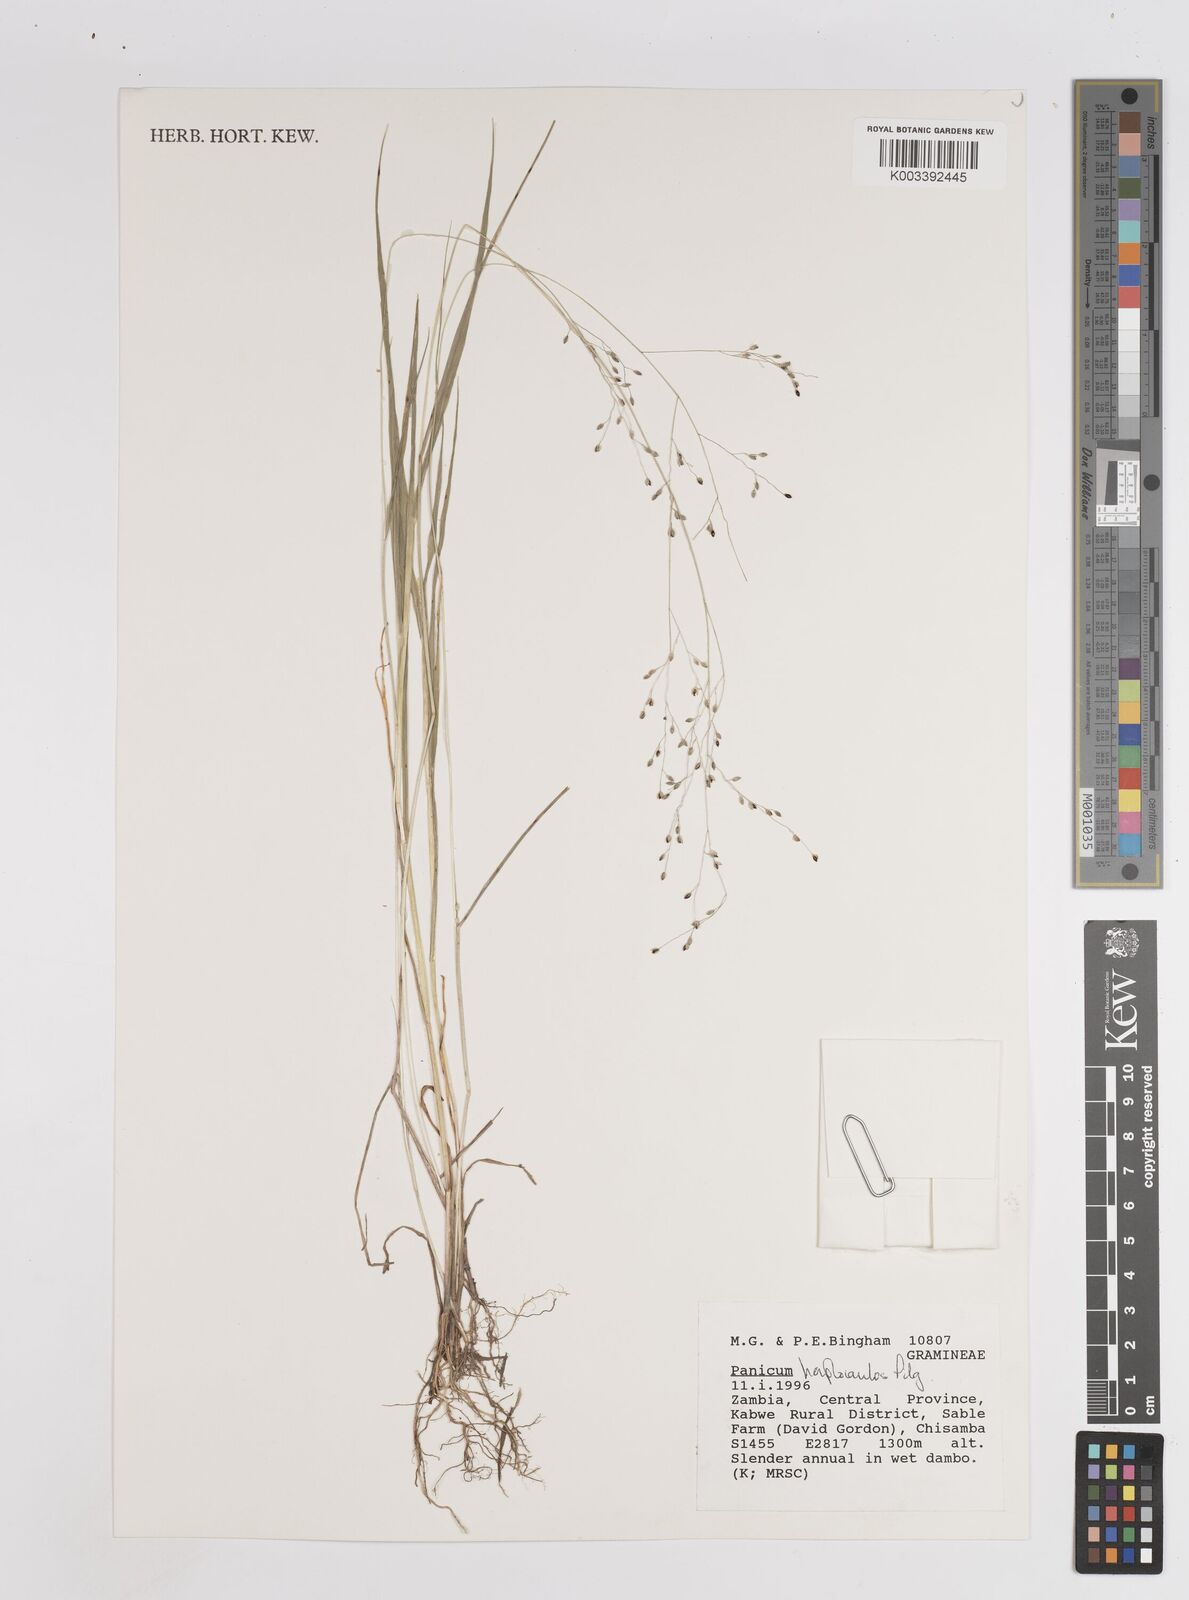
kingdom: Plantae
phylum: Tracheophyta
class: Liliopsida
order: Poales
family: Poaceae
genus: Panicum
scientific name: Panicum haplocaulos
